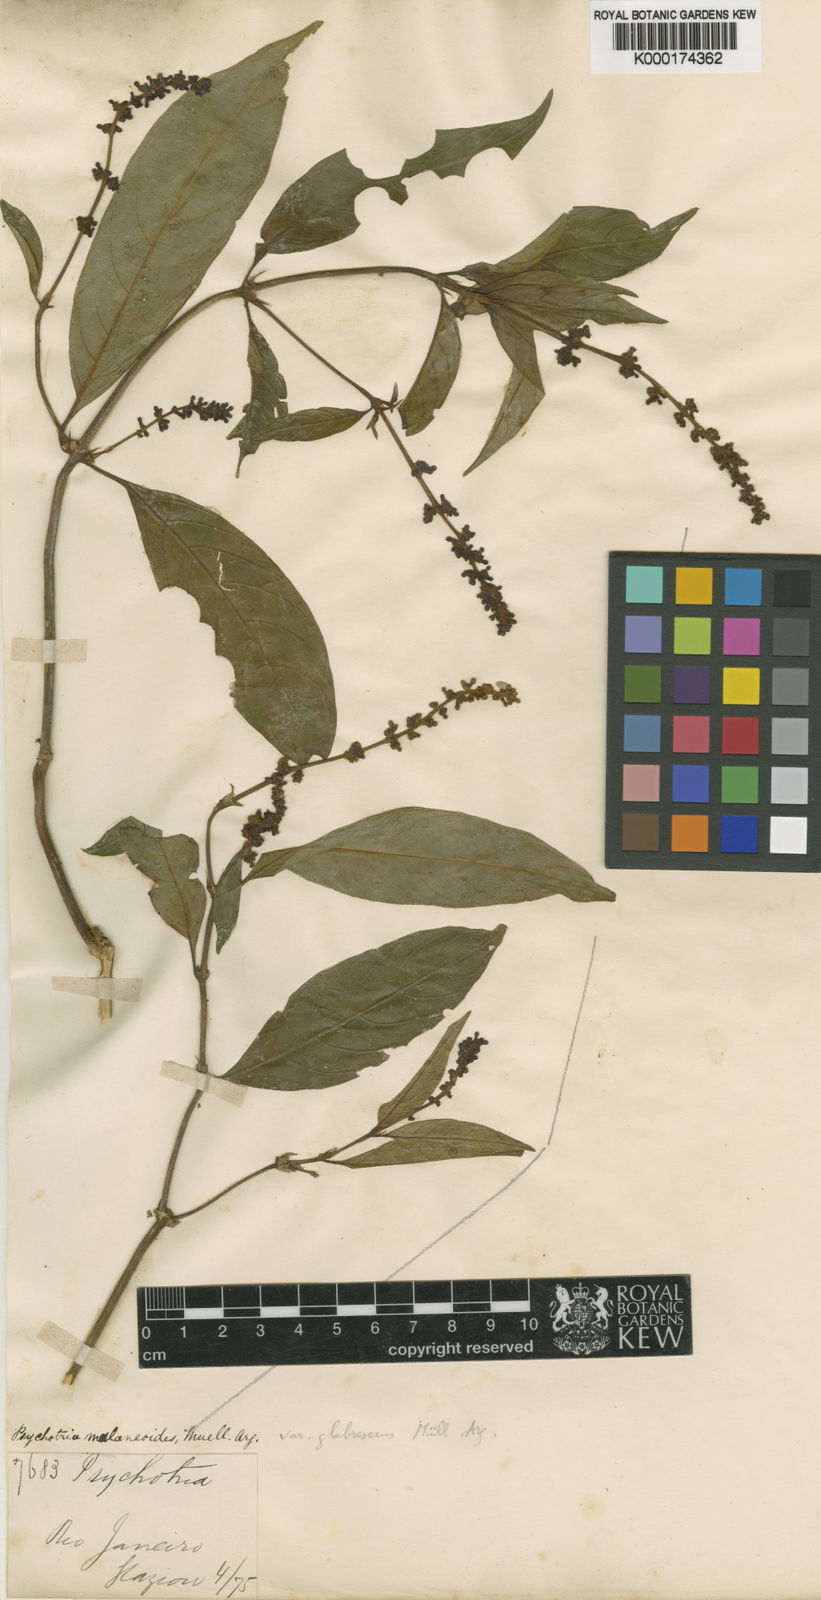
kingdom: Plantae
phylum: Tracheophyta
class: Magnoliopsida
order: Gentianales
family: Rubiaceae
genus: Psychotria
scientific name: Psychotria
